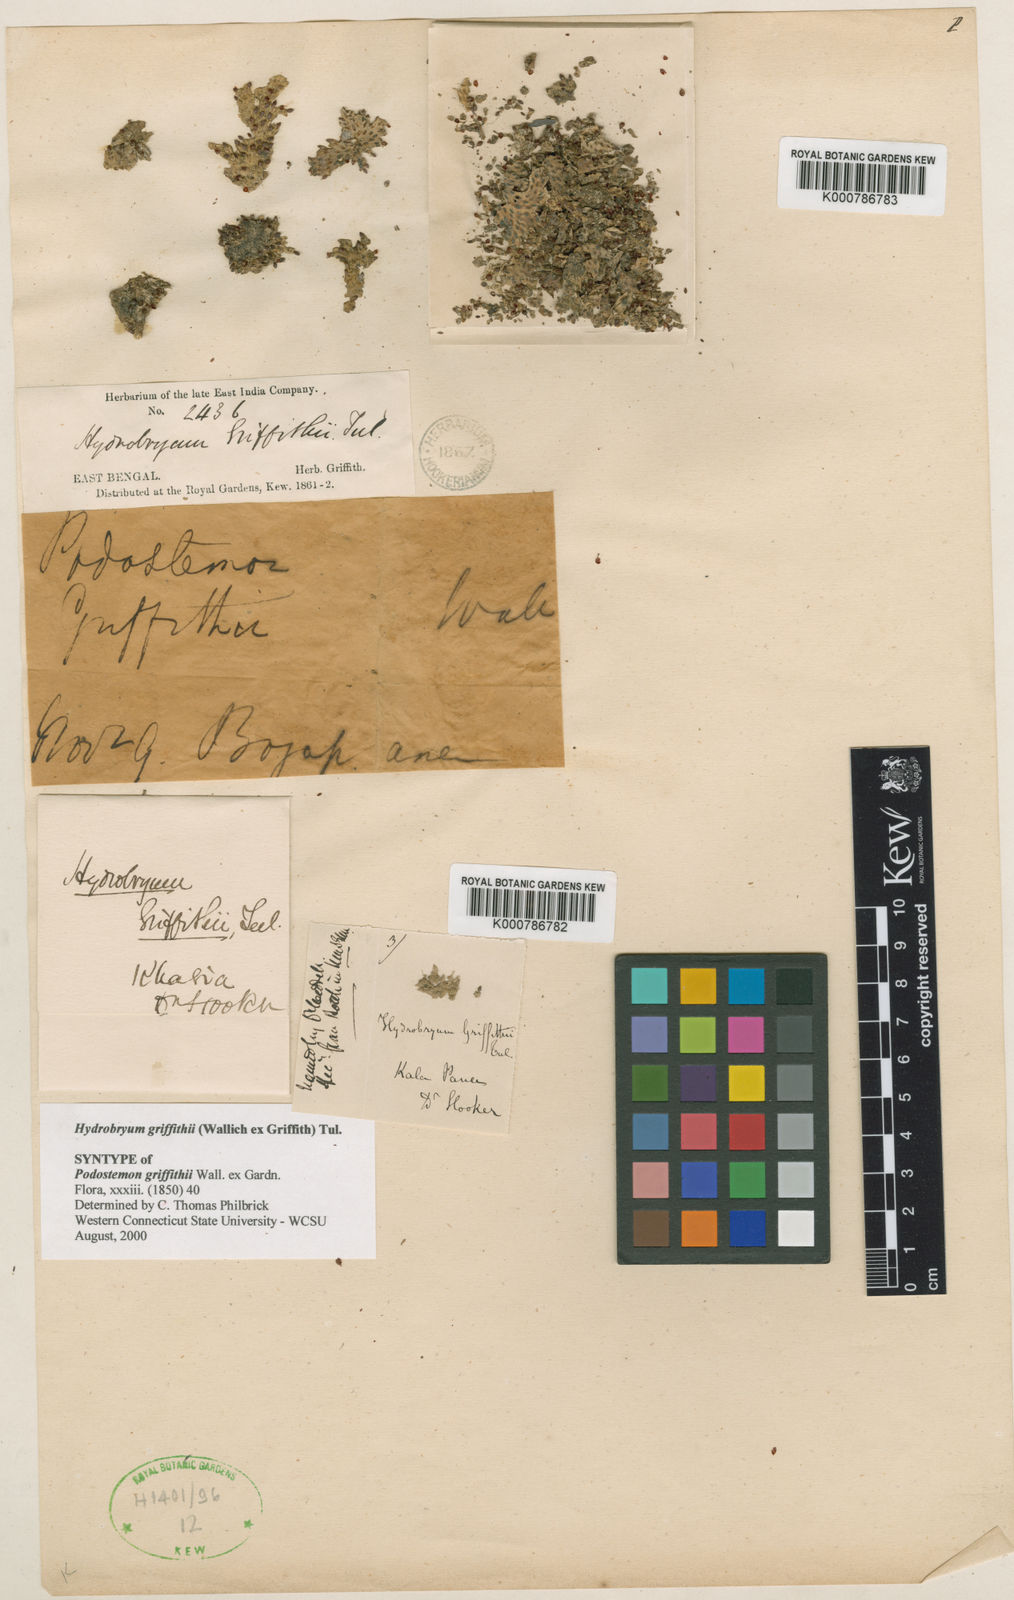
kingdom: Plantae
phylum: Tracheophyta
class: Magnoliopsida
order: Malpighiales
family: Podostemaceae
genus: Hydrobryum
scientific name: Hydrobryum griffithii
